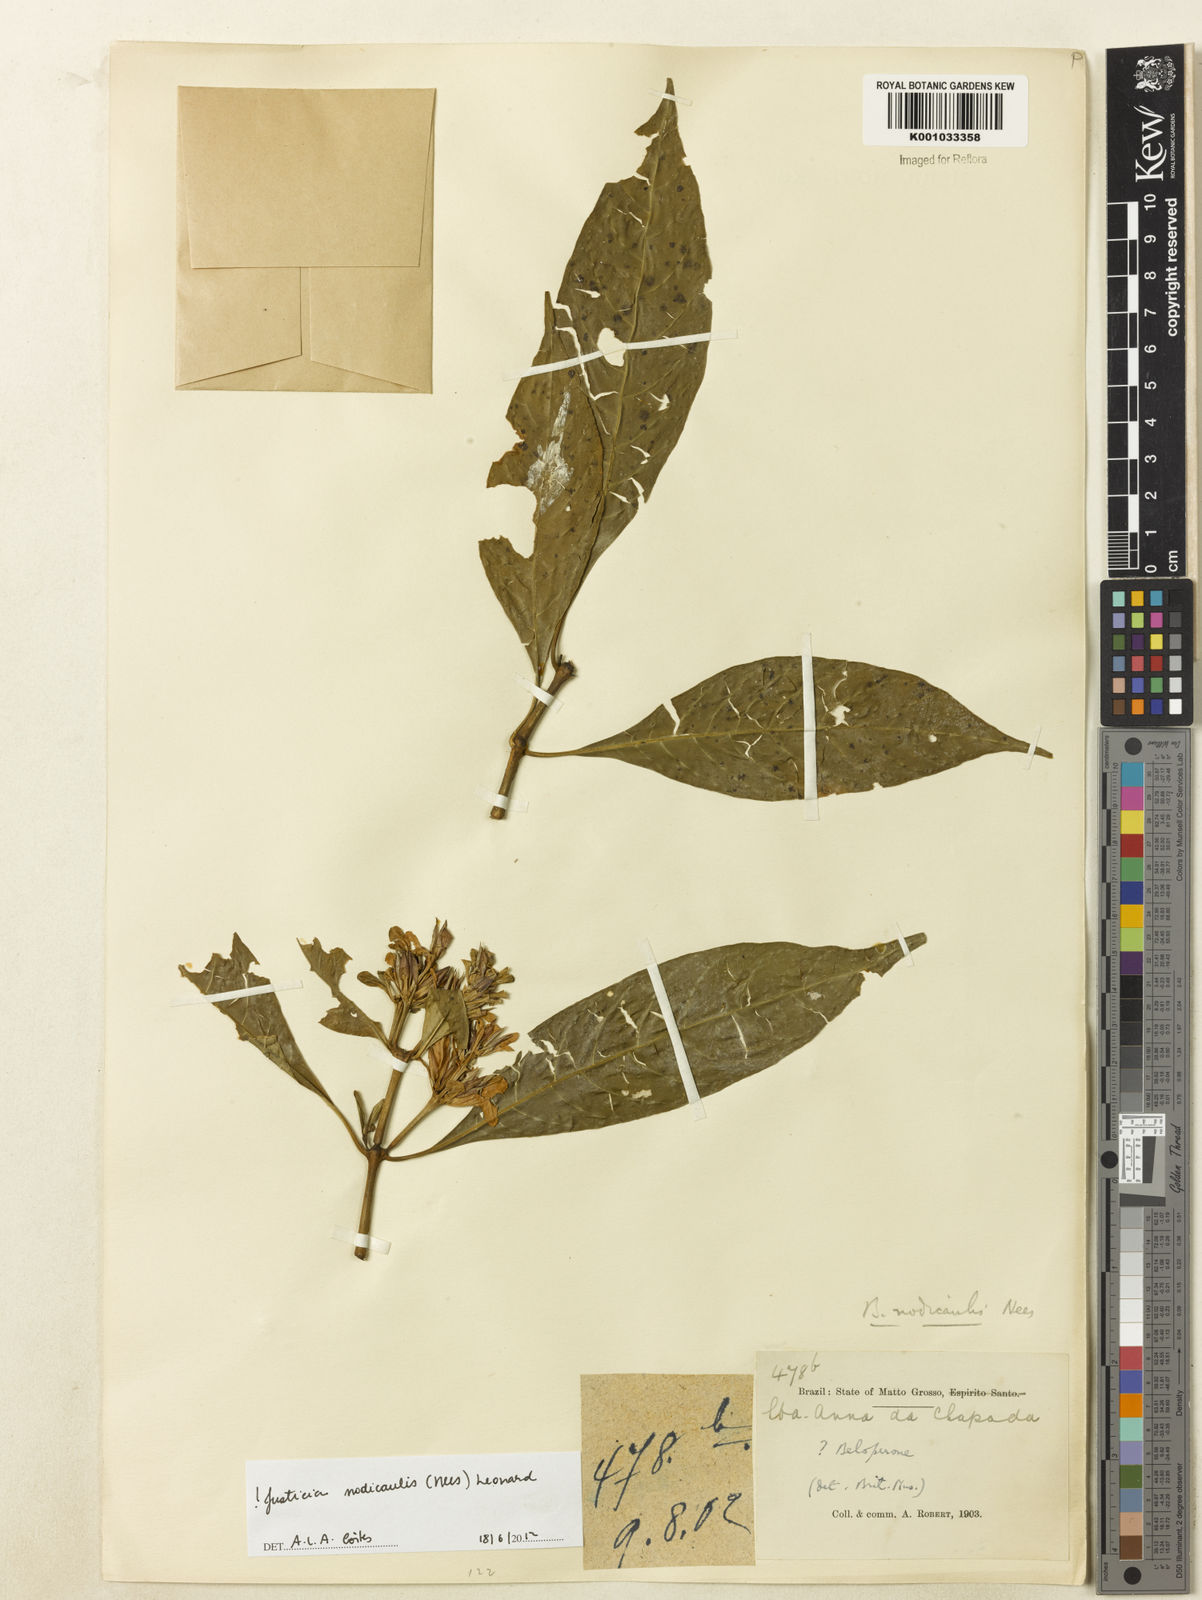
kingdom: Plantae
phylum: Tracheophyta
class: Magnoliopsida
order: Lamiales
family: Acanthaceae
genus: Justicia
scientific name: Justicia nodicaulis
